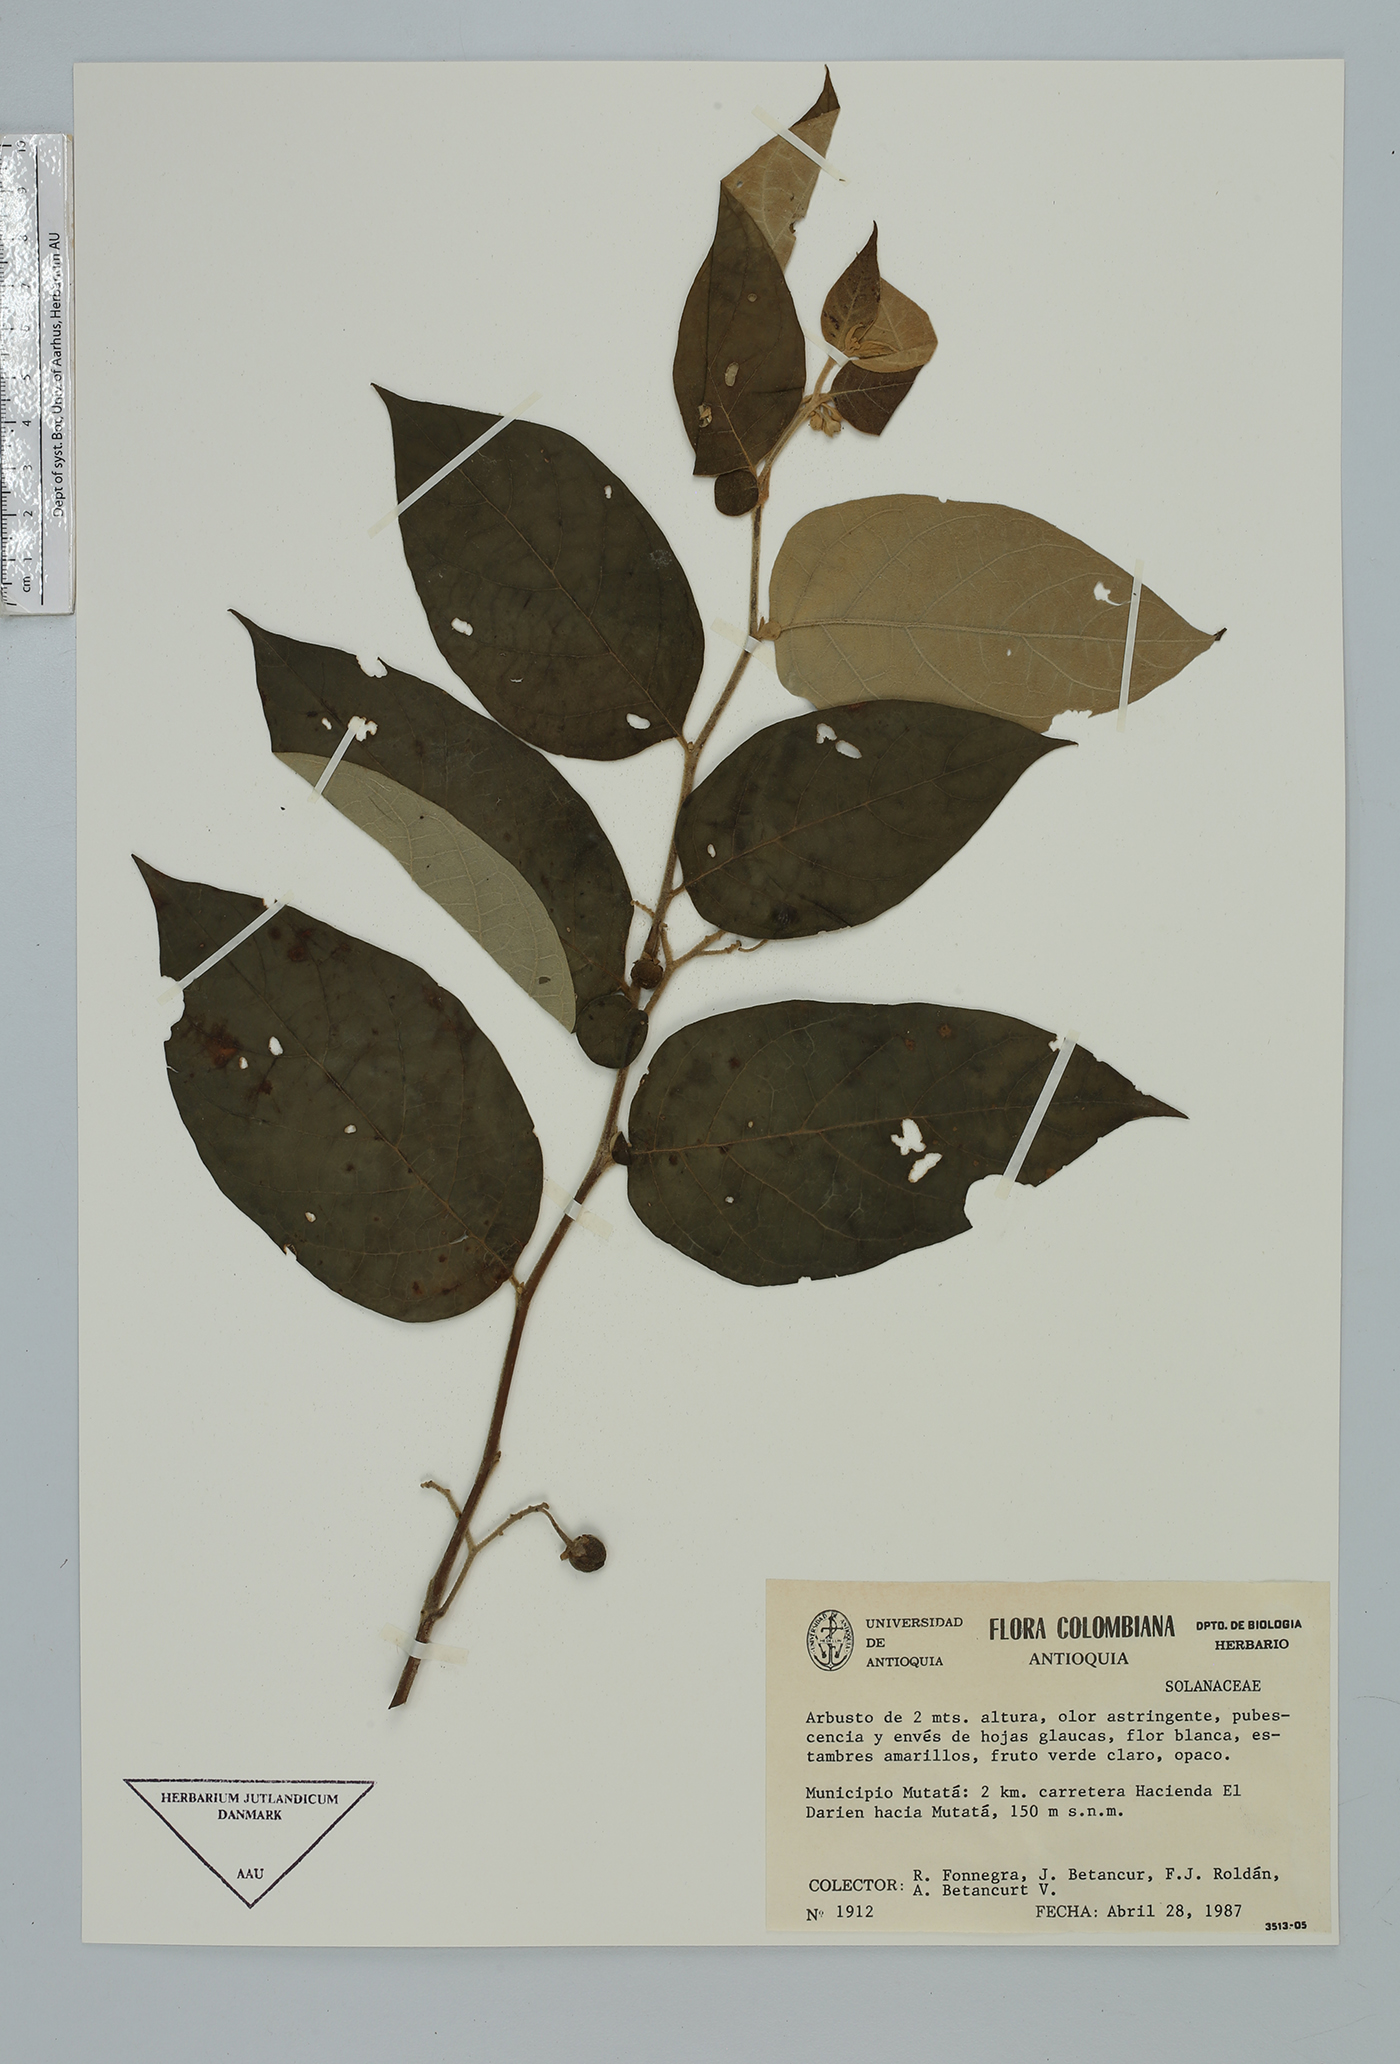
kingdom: Plantae
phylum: Tracheophyta
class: Magnoliopsida
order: Solanales
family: Solanaceae
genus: Solanum
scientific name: Solanum
